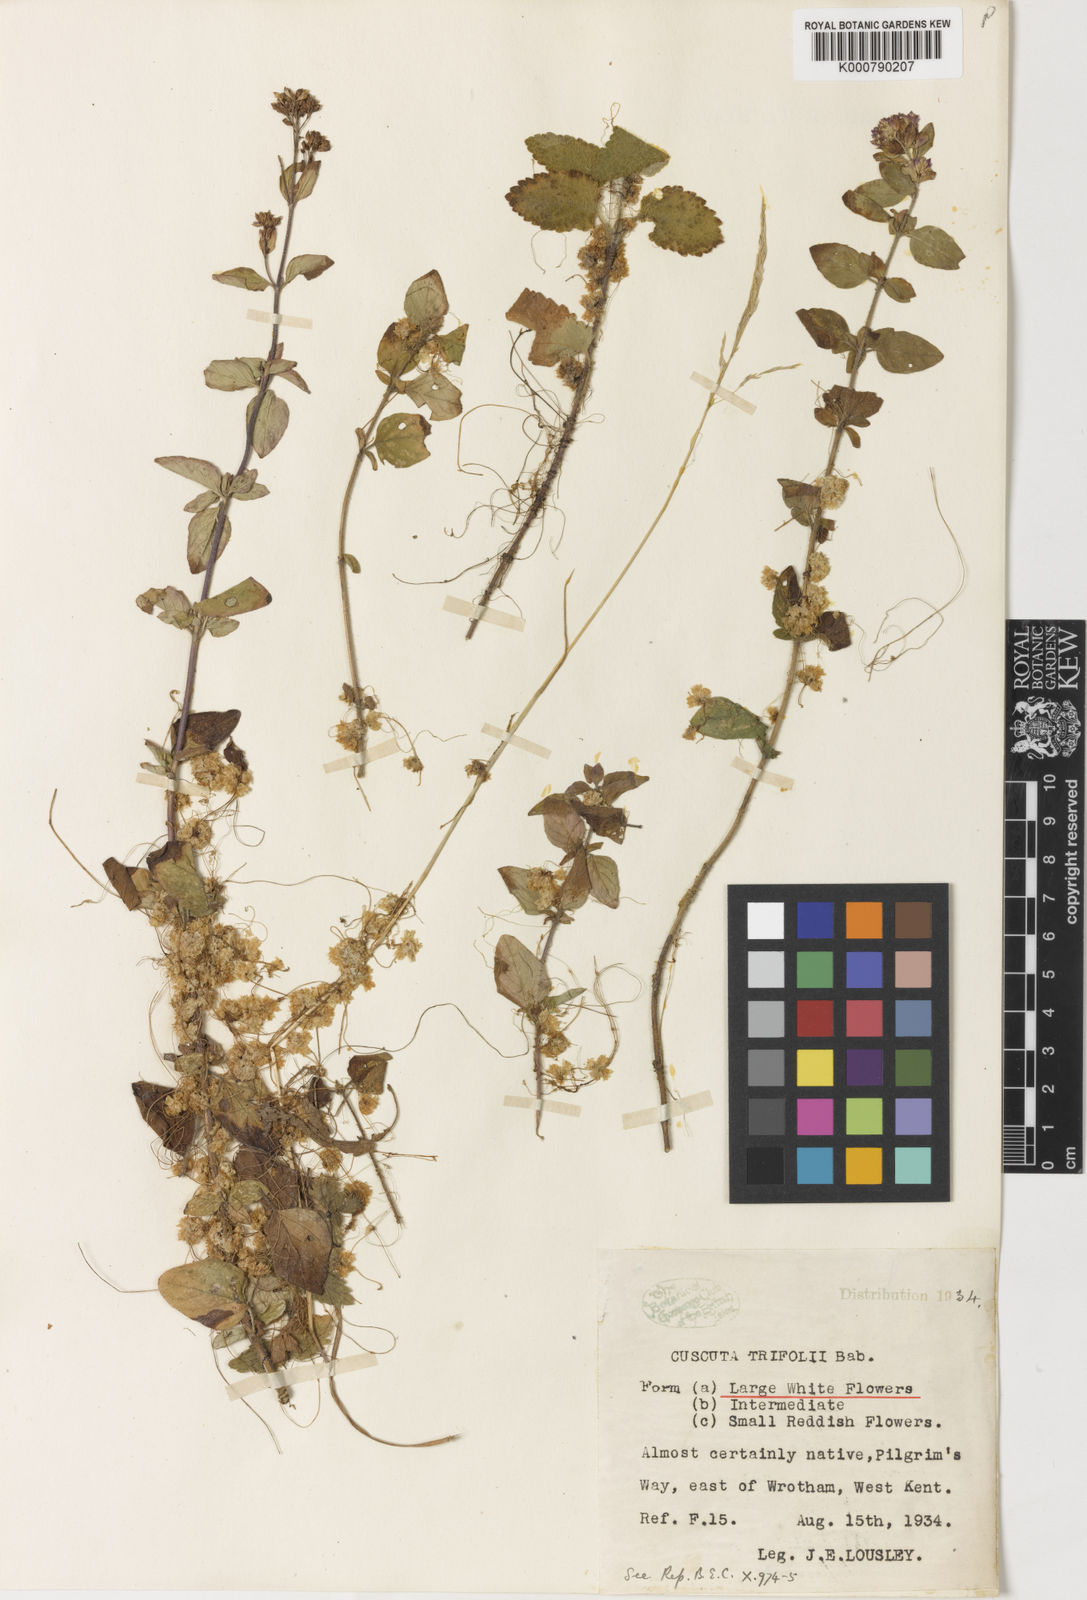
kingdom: Plantae
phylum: Tracheophyta
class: Magnoliopsida
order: Solanales
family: Convolvulaceae
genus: Cuscuta
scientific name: Cuscuta epithymum
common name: Clover dodder
